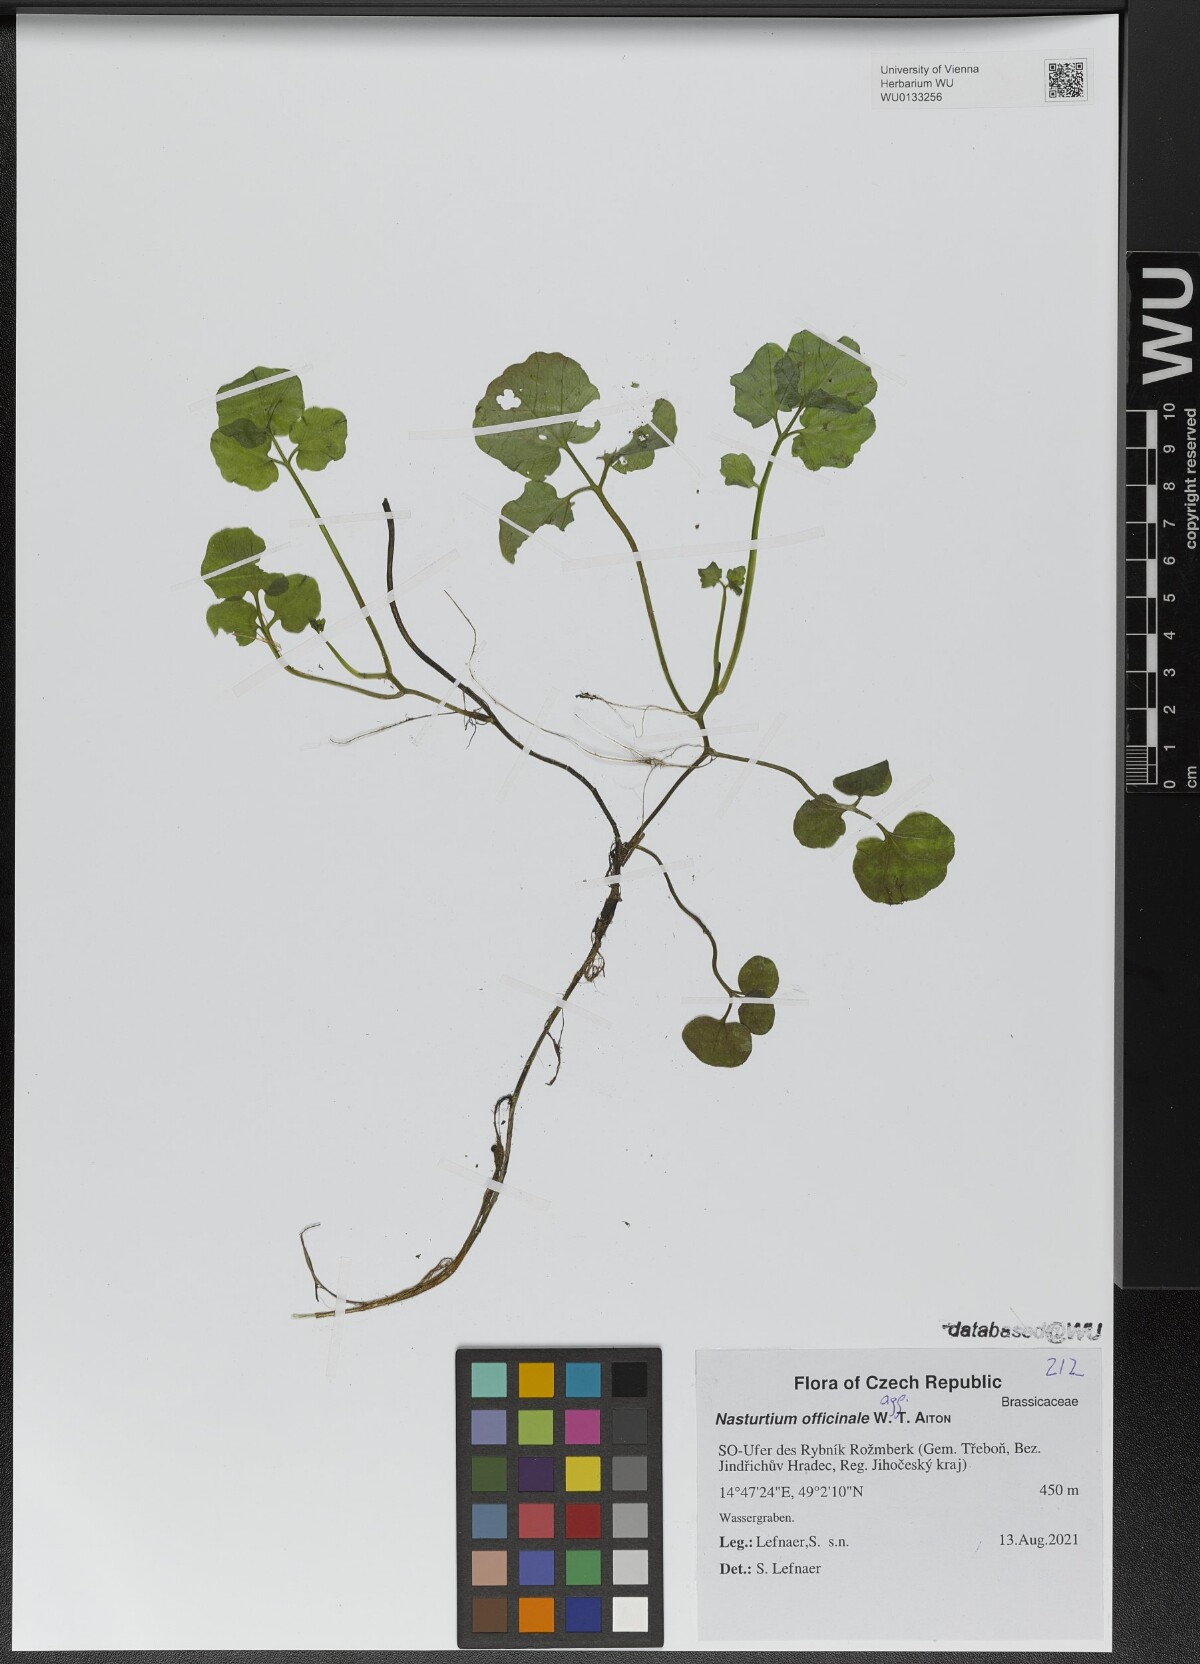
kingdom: Plantae
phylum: Tracheophyta
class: Magnoliopsida
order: Brassicales
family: Brassicaceae
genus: Nasturtium
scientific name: Nasturtium officinale
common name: Watercress
